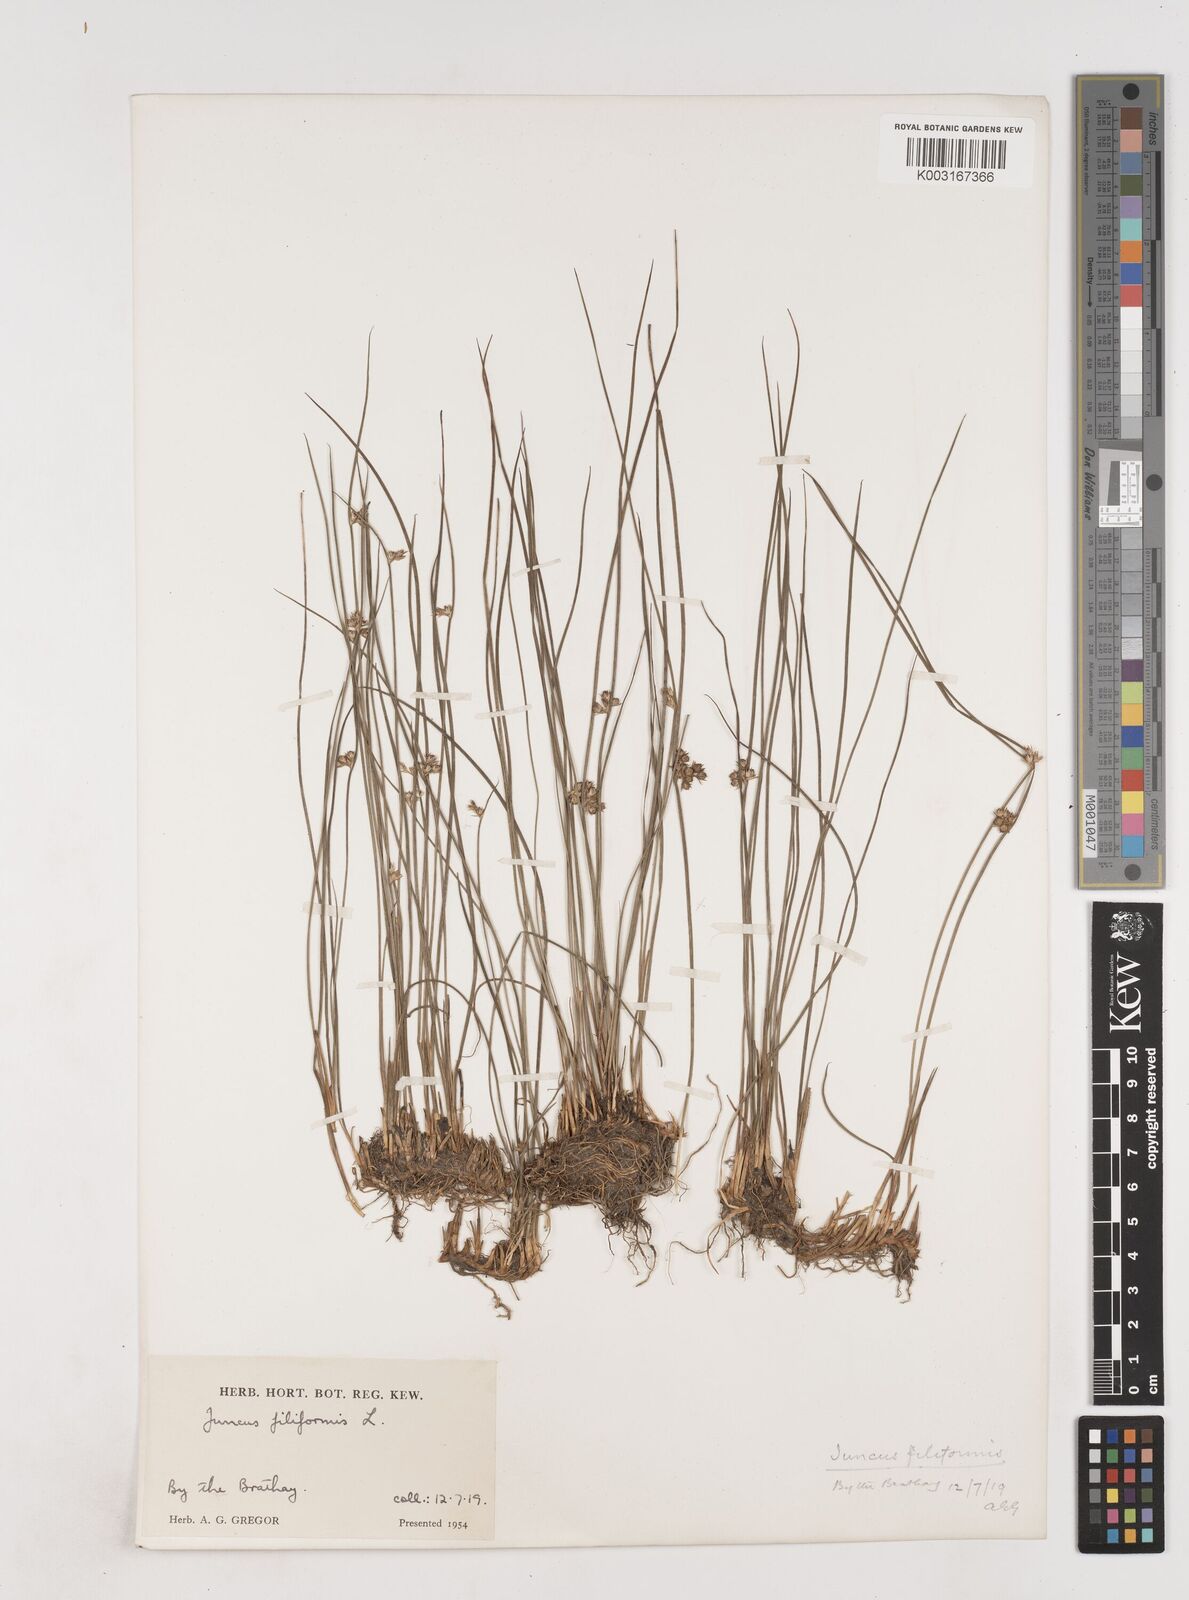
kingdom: Plantae
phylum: Tracheophyta
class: Liliopsida
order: Poales
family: Juncaceae
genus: Juncus
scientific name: Juncus filiformis
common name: Thread rush
